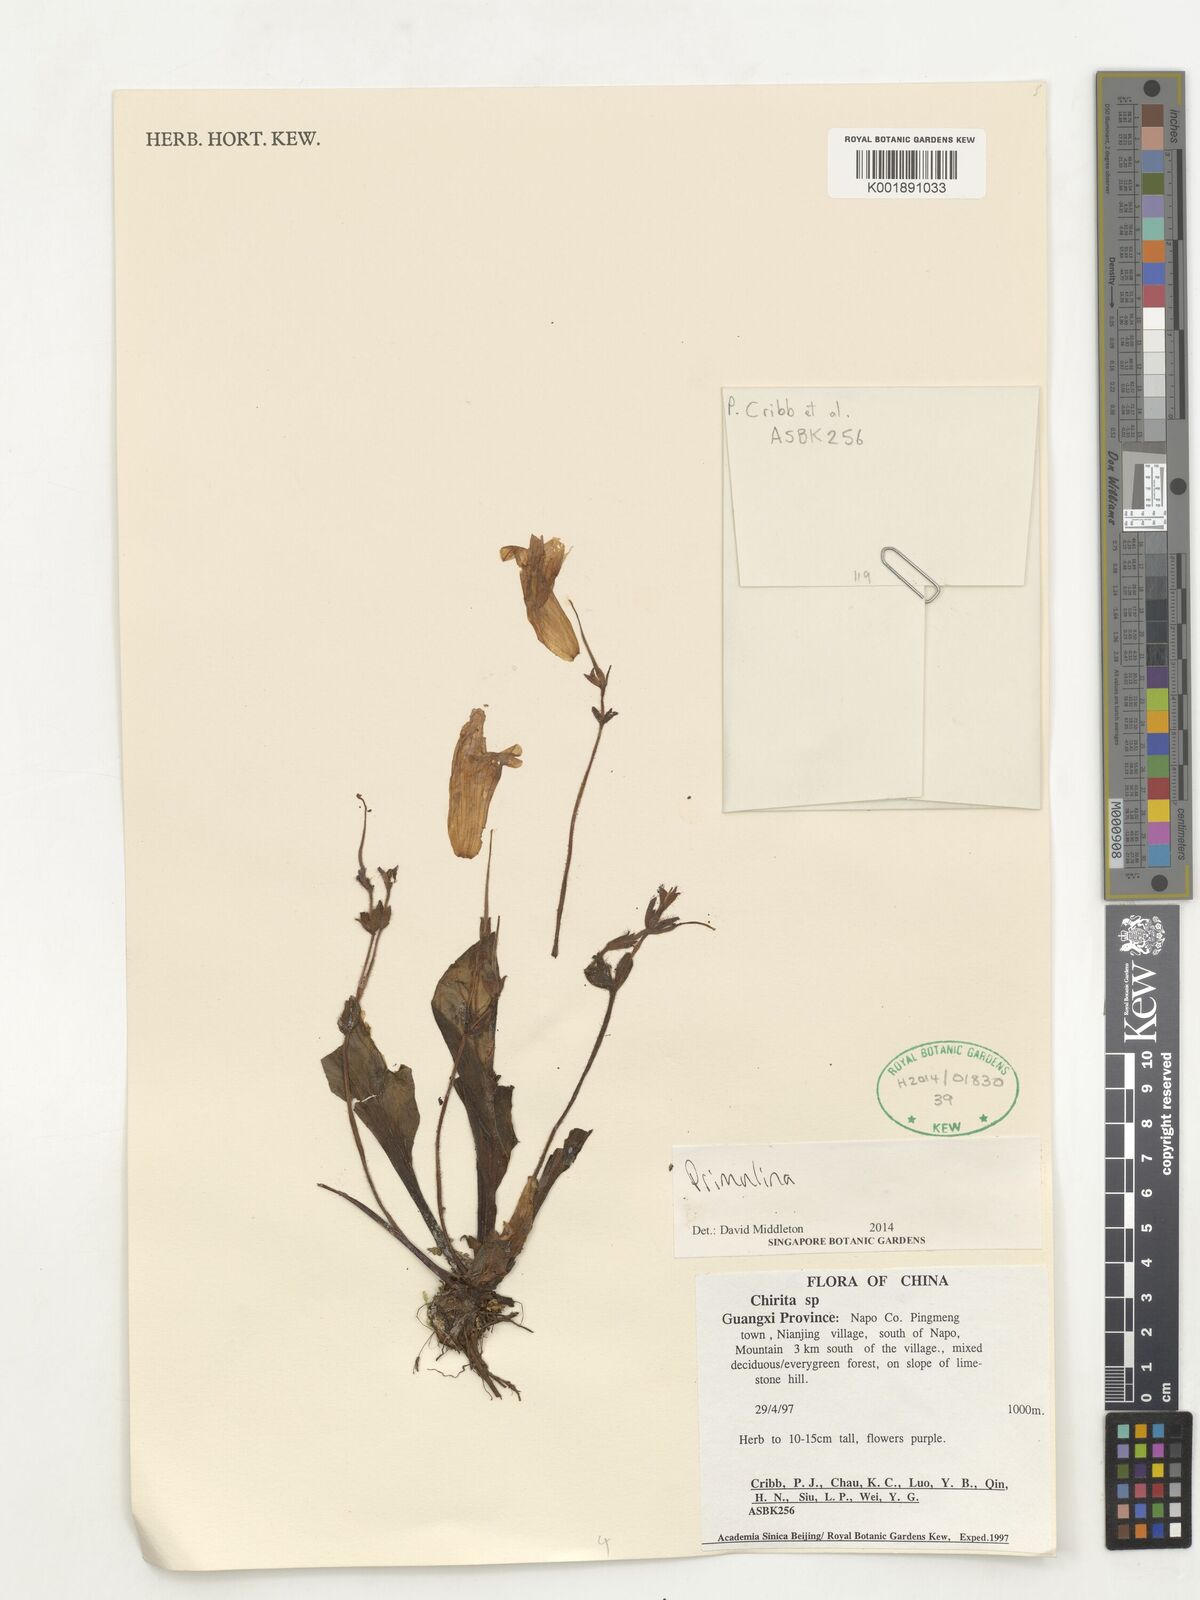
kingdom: Plantae
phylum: Tracheophyta
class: Magnoliopsida
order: Lamiales
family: Gesneriaceae
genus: Primulina
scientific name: Primulina
